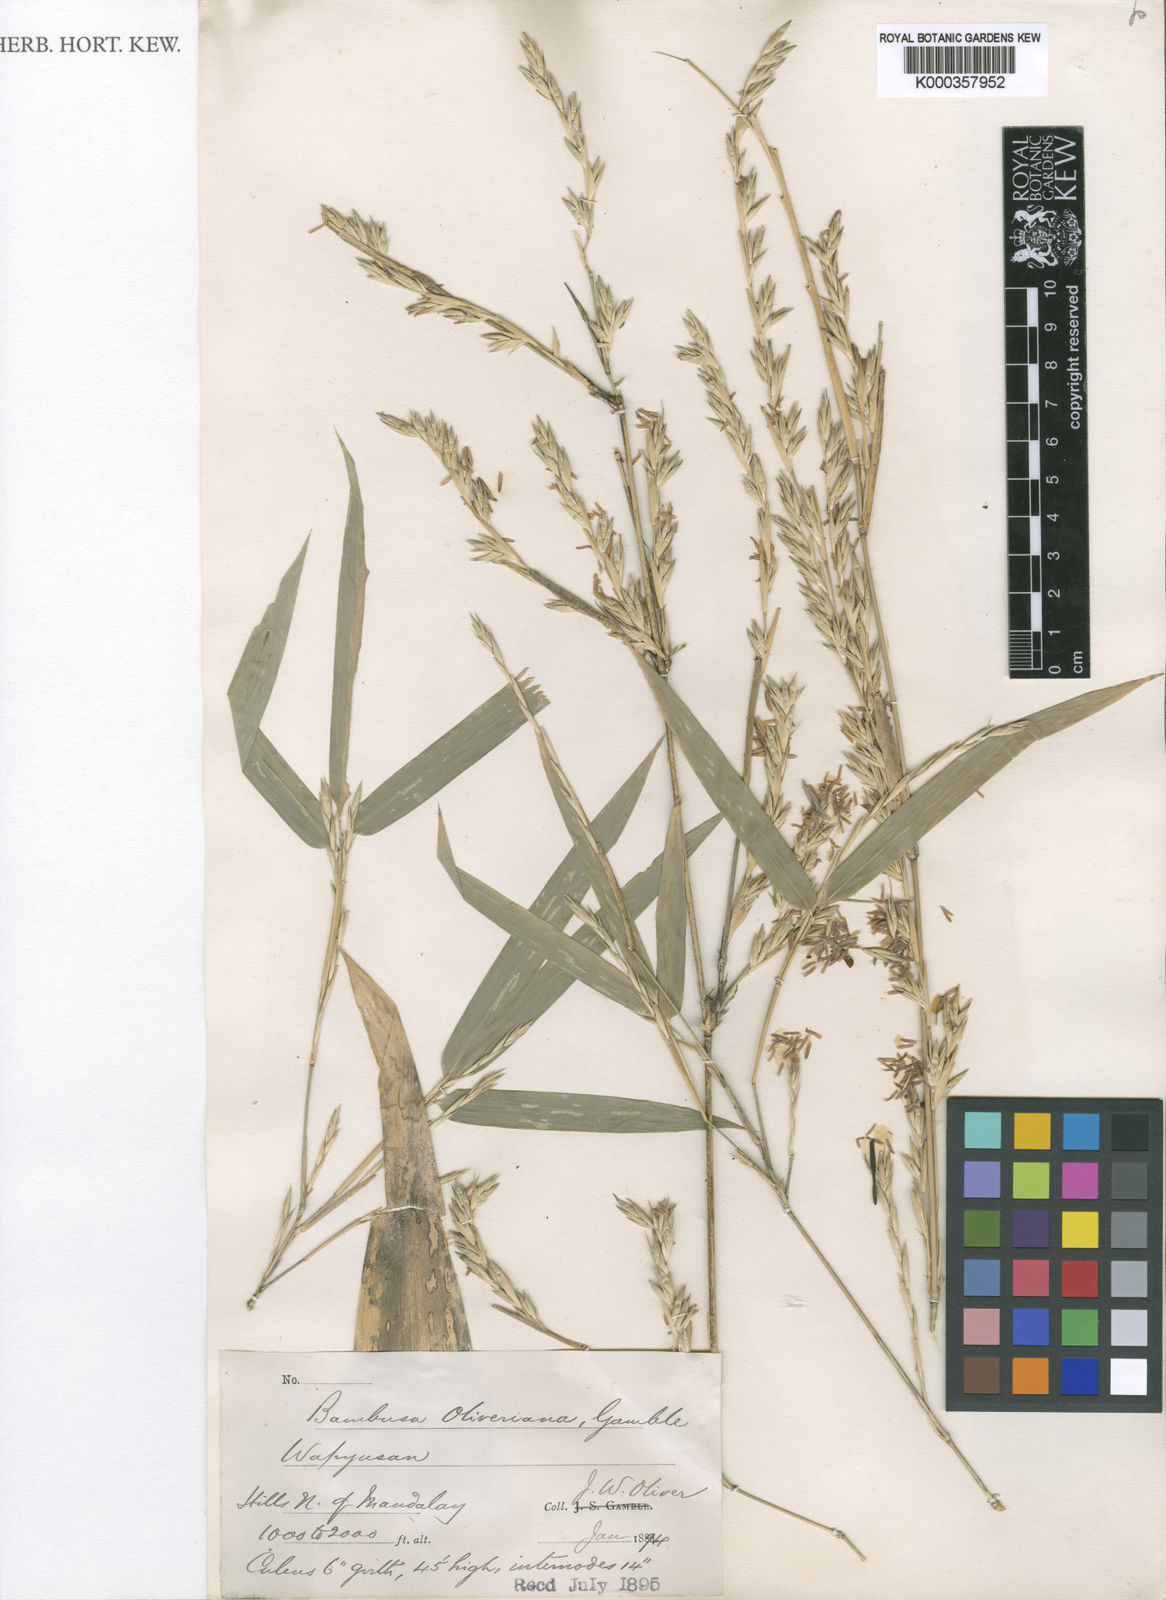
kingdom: Plantae
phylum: Tracheophyta
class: Liliopsida
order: Poales
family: Poaceae
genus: Bambusa
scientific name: Bambusa oliveriana
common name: Bush bamboo
